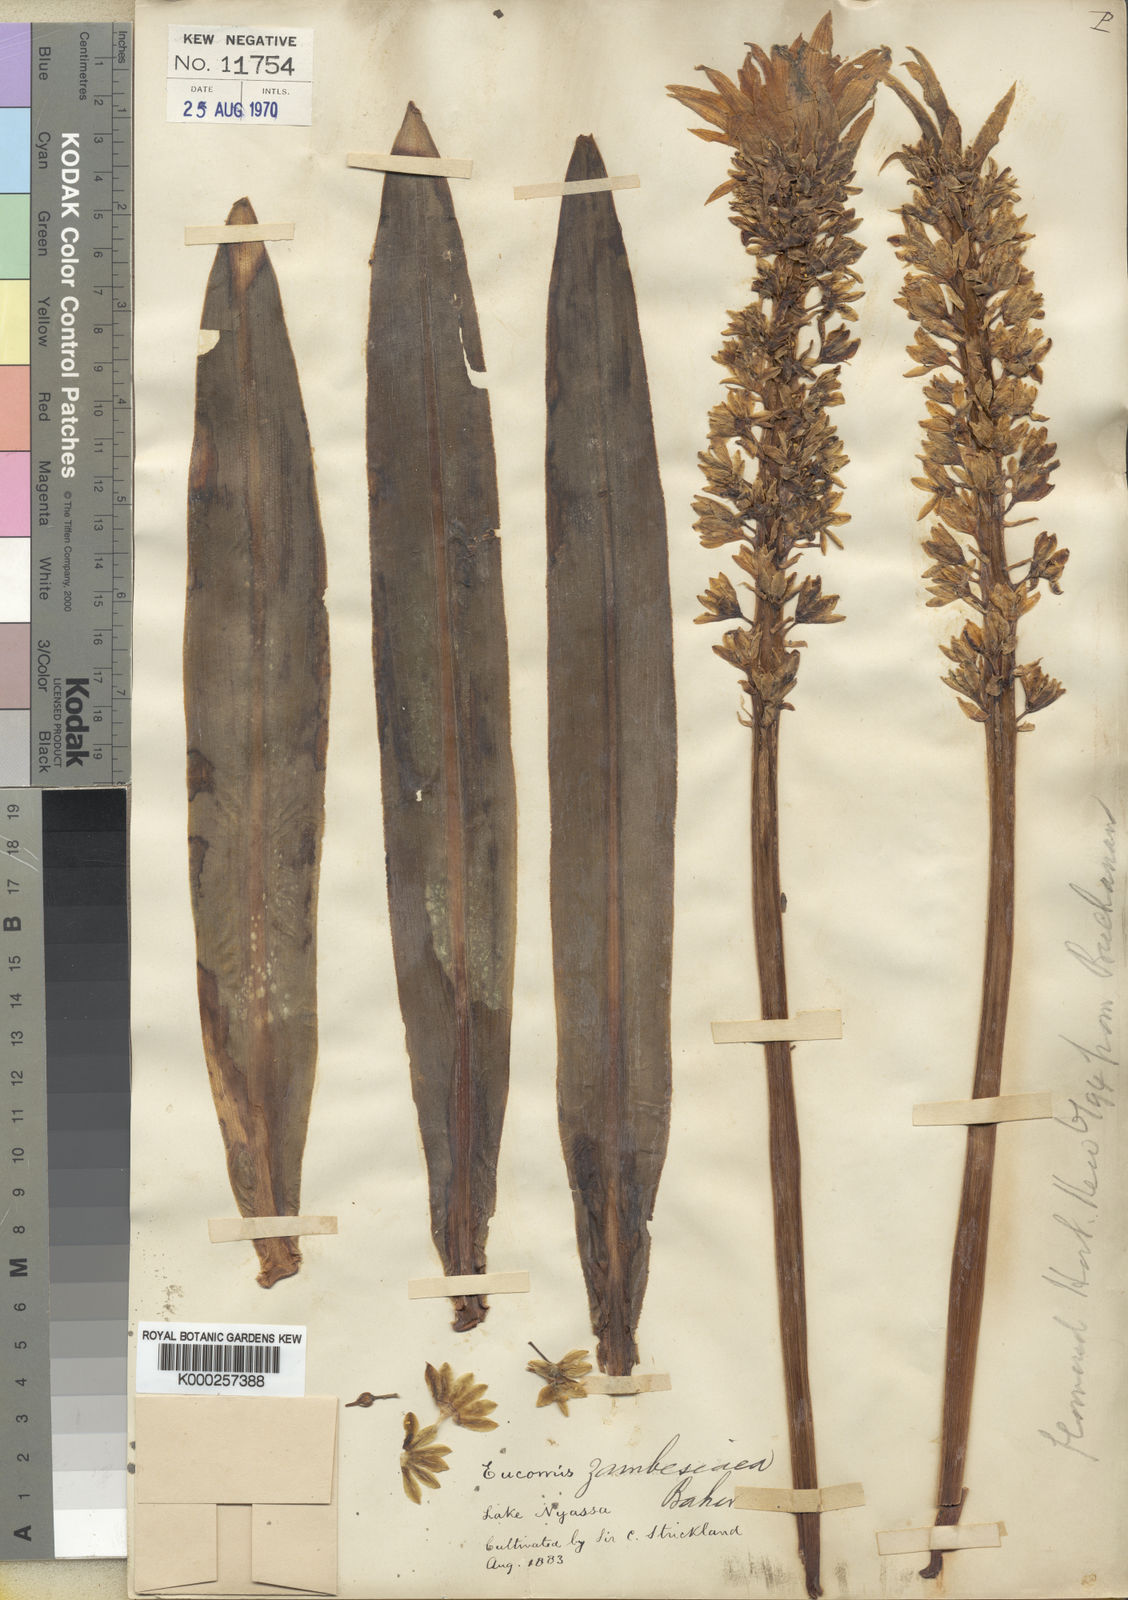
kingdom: Plantae
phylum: Tracheophyta
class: Liliopsida
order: Asparagales
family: Asparagaceae
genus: Eucomis
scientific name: Eucomis zambesiaca
